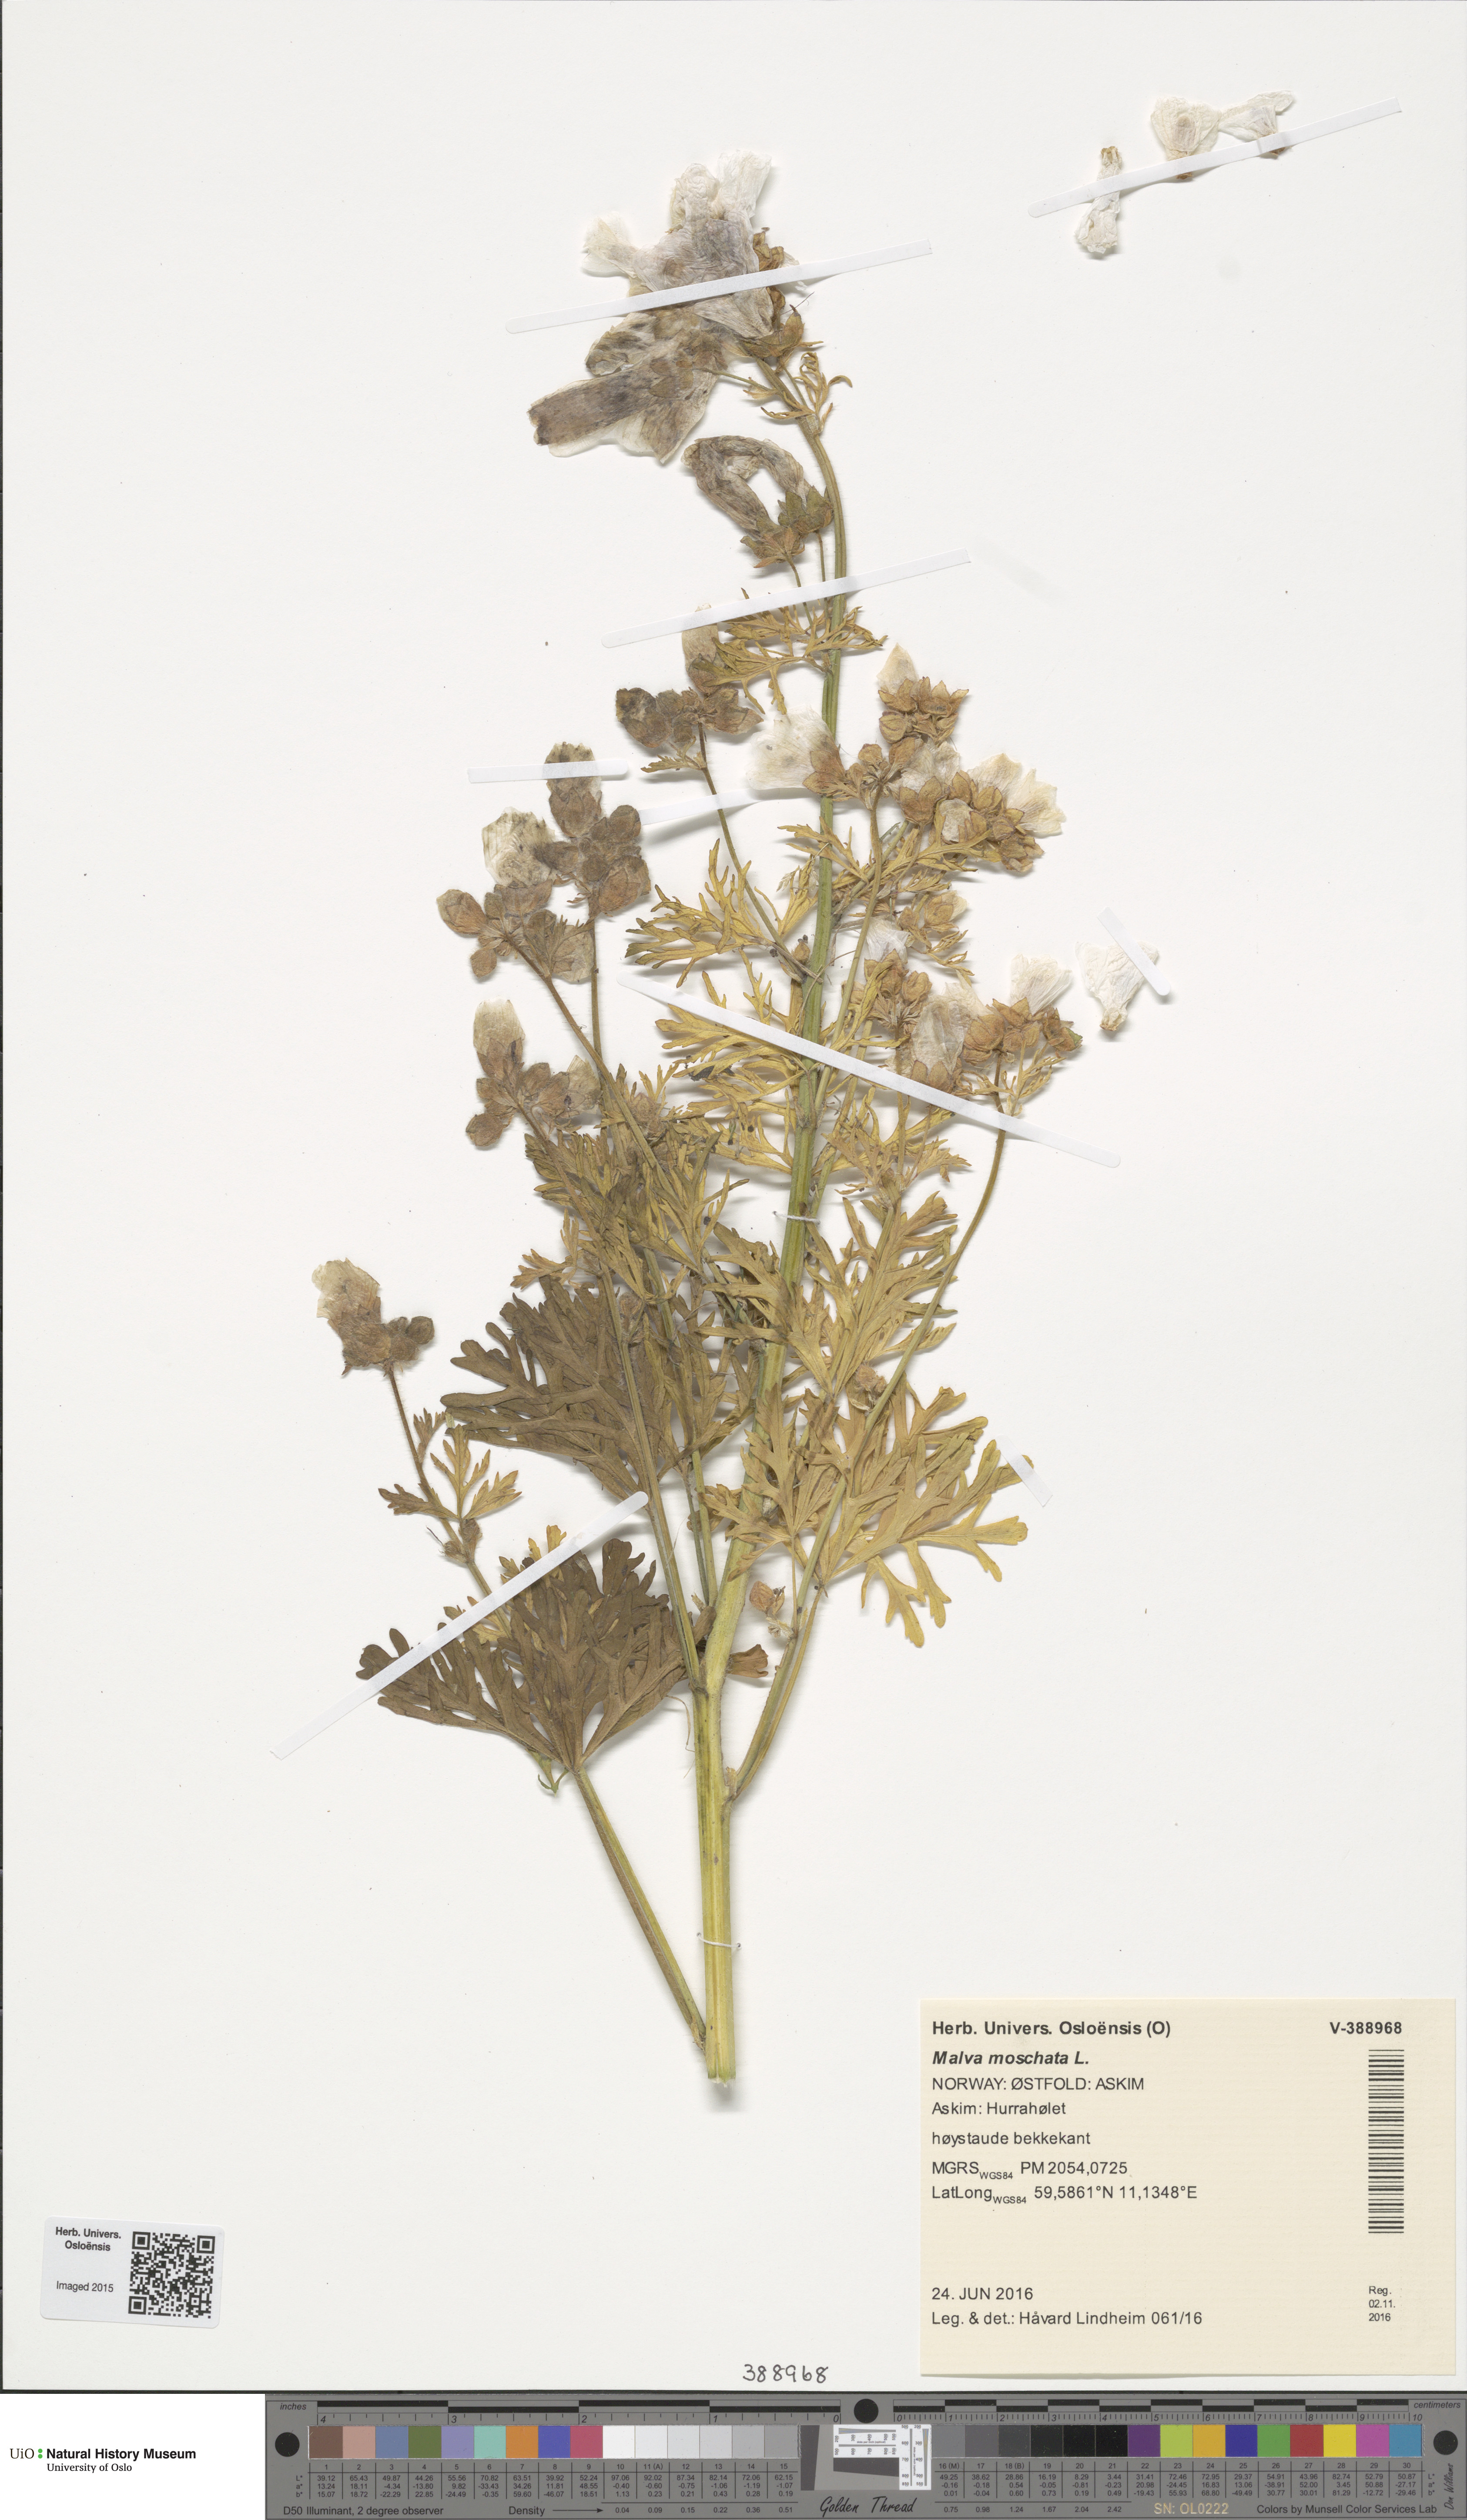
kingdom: Plantae
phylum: Tracheophyta
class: Magnoliopsida
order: Malvales
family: Malvaceae
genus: Malva
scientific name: Malva moschata
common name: Musk mallow
